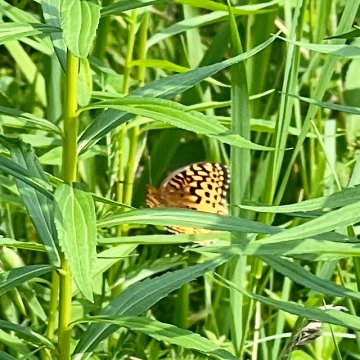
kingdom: Animalia
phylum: Arthropoda
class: Insecta
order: Lepidoptera
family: Nymphalidae
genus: Speyeria
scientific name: Speyeria aphrodite
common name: Aphrodite Fritillary
